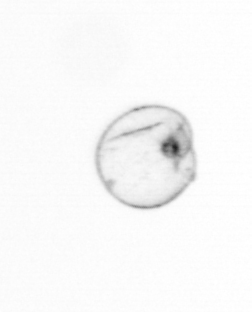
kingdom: Chromista
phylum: Myzozoa
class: Dinophyceae
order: Noctilucales
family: Noctilucaceae
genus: Noctiluca
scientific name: Noctiluca scintillans
